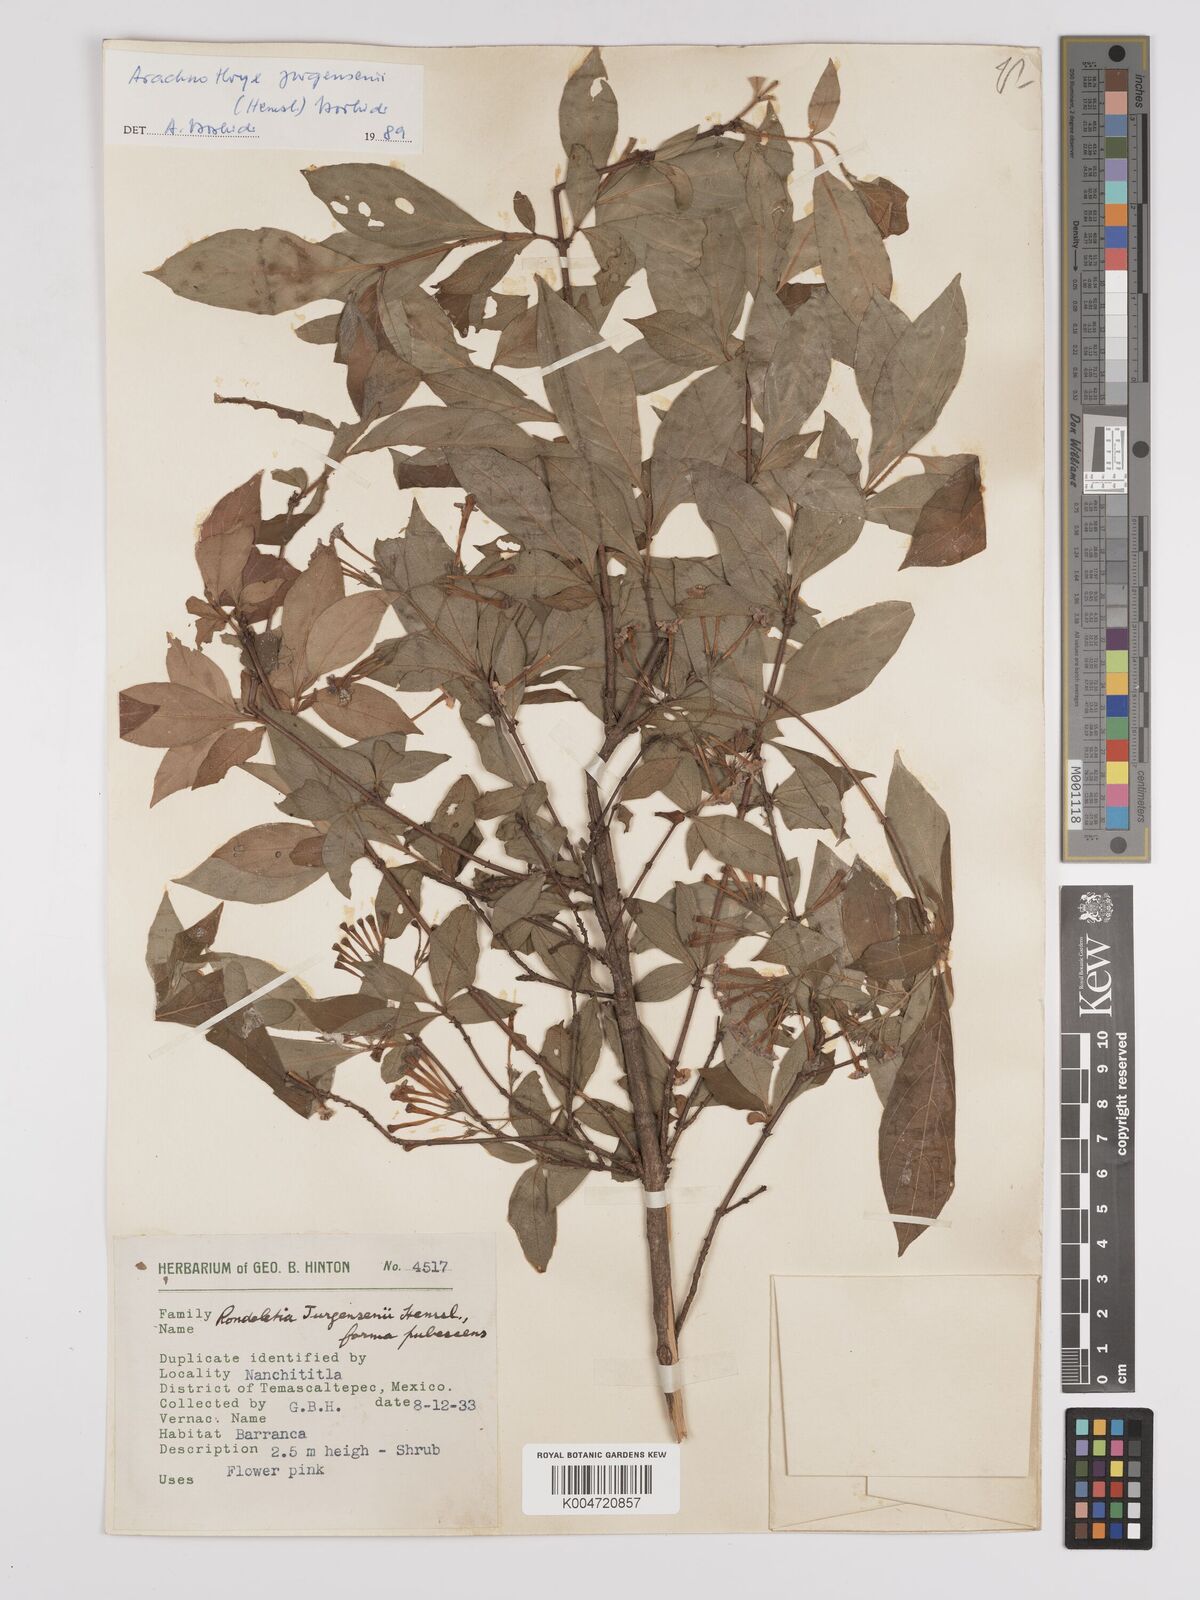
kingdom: Plantae
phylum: Tracheophyta
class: Magnoliopsida
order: Gentianales
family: Rubiaceae
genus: Arachnothryx
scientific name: Arachnothryx jurgensenii
